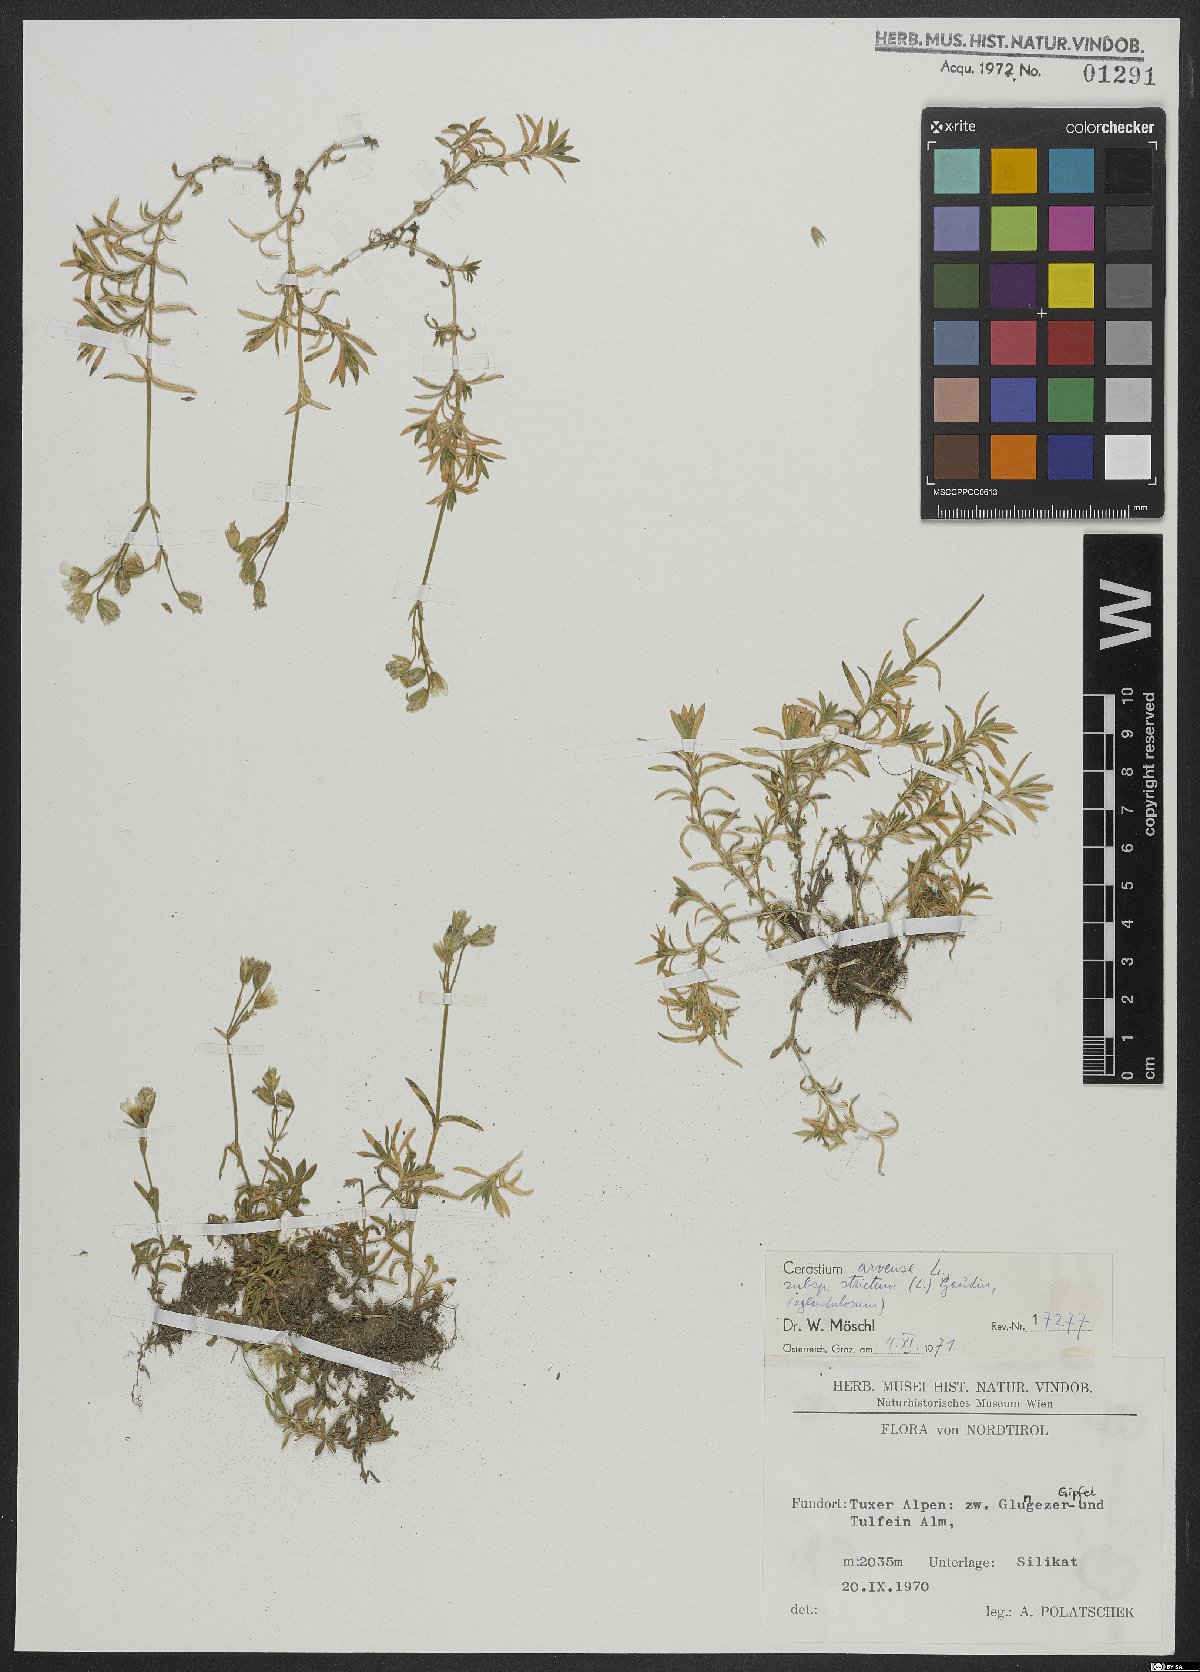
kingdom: Plantae
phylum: Tracheophyta
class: Magnoliopsida
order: Caryophyllales
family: Caryophyllaceae
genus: Cerastium
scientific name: Cerastium elongatum
